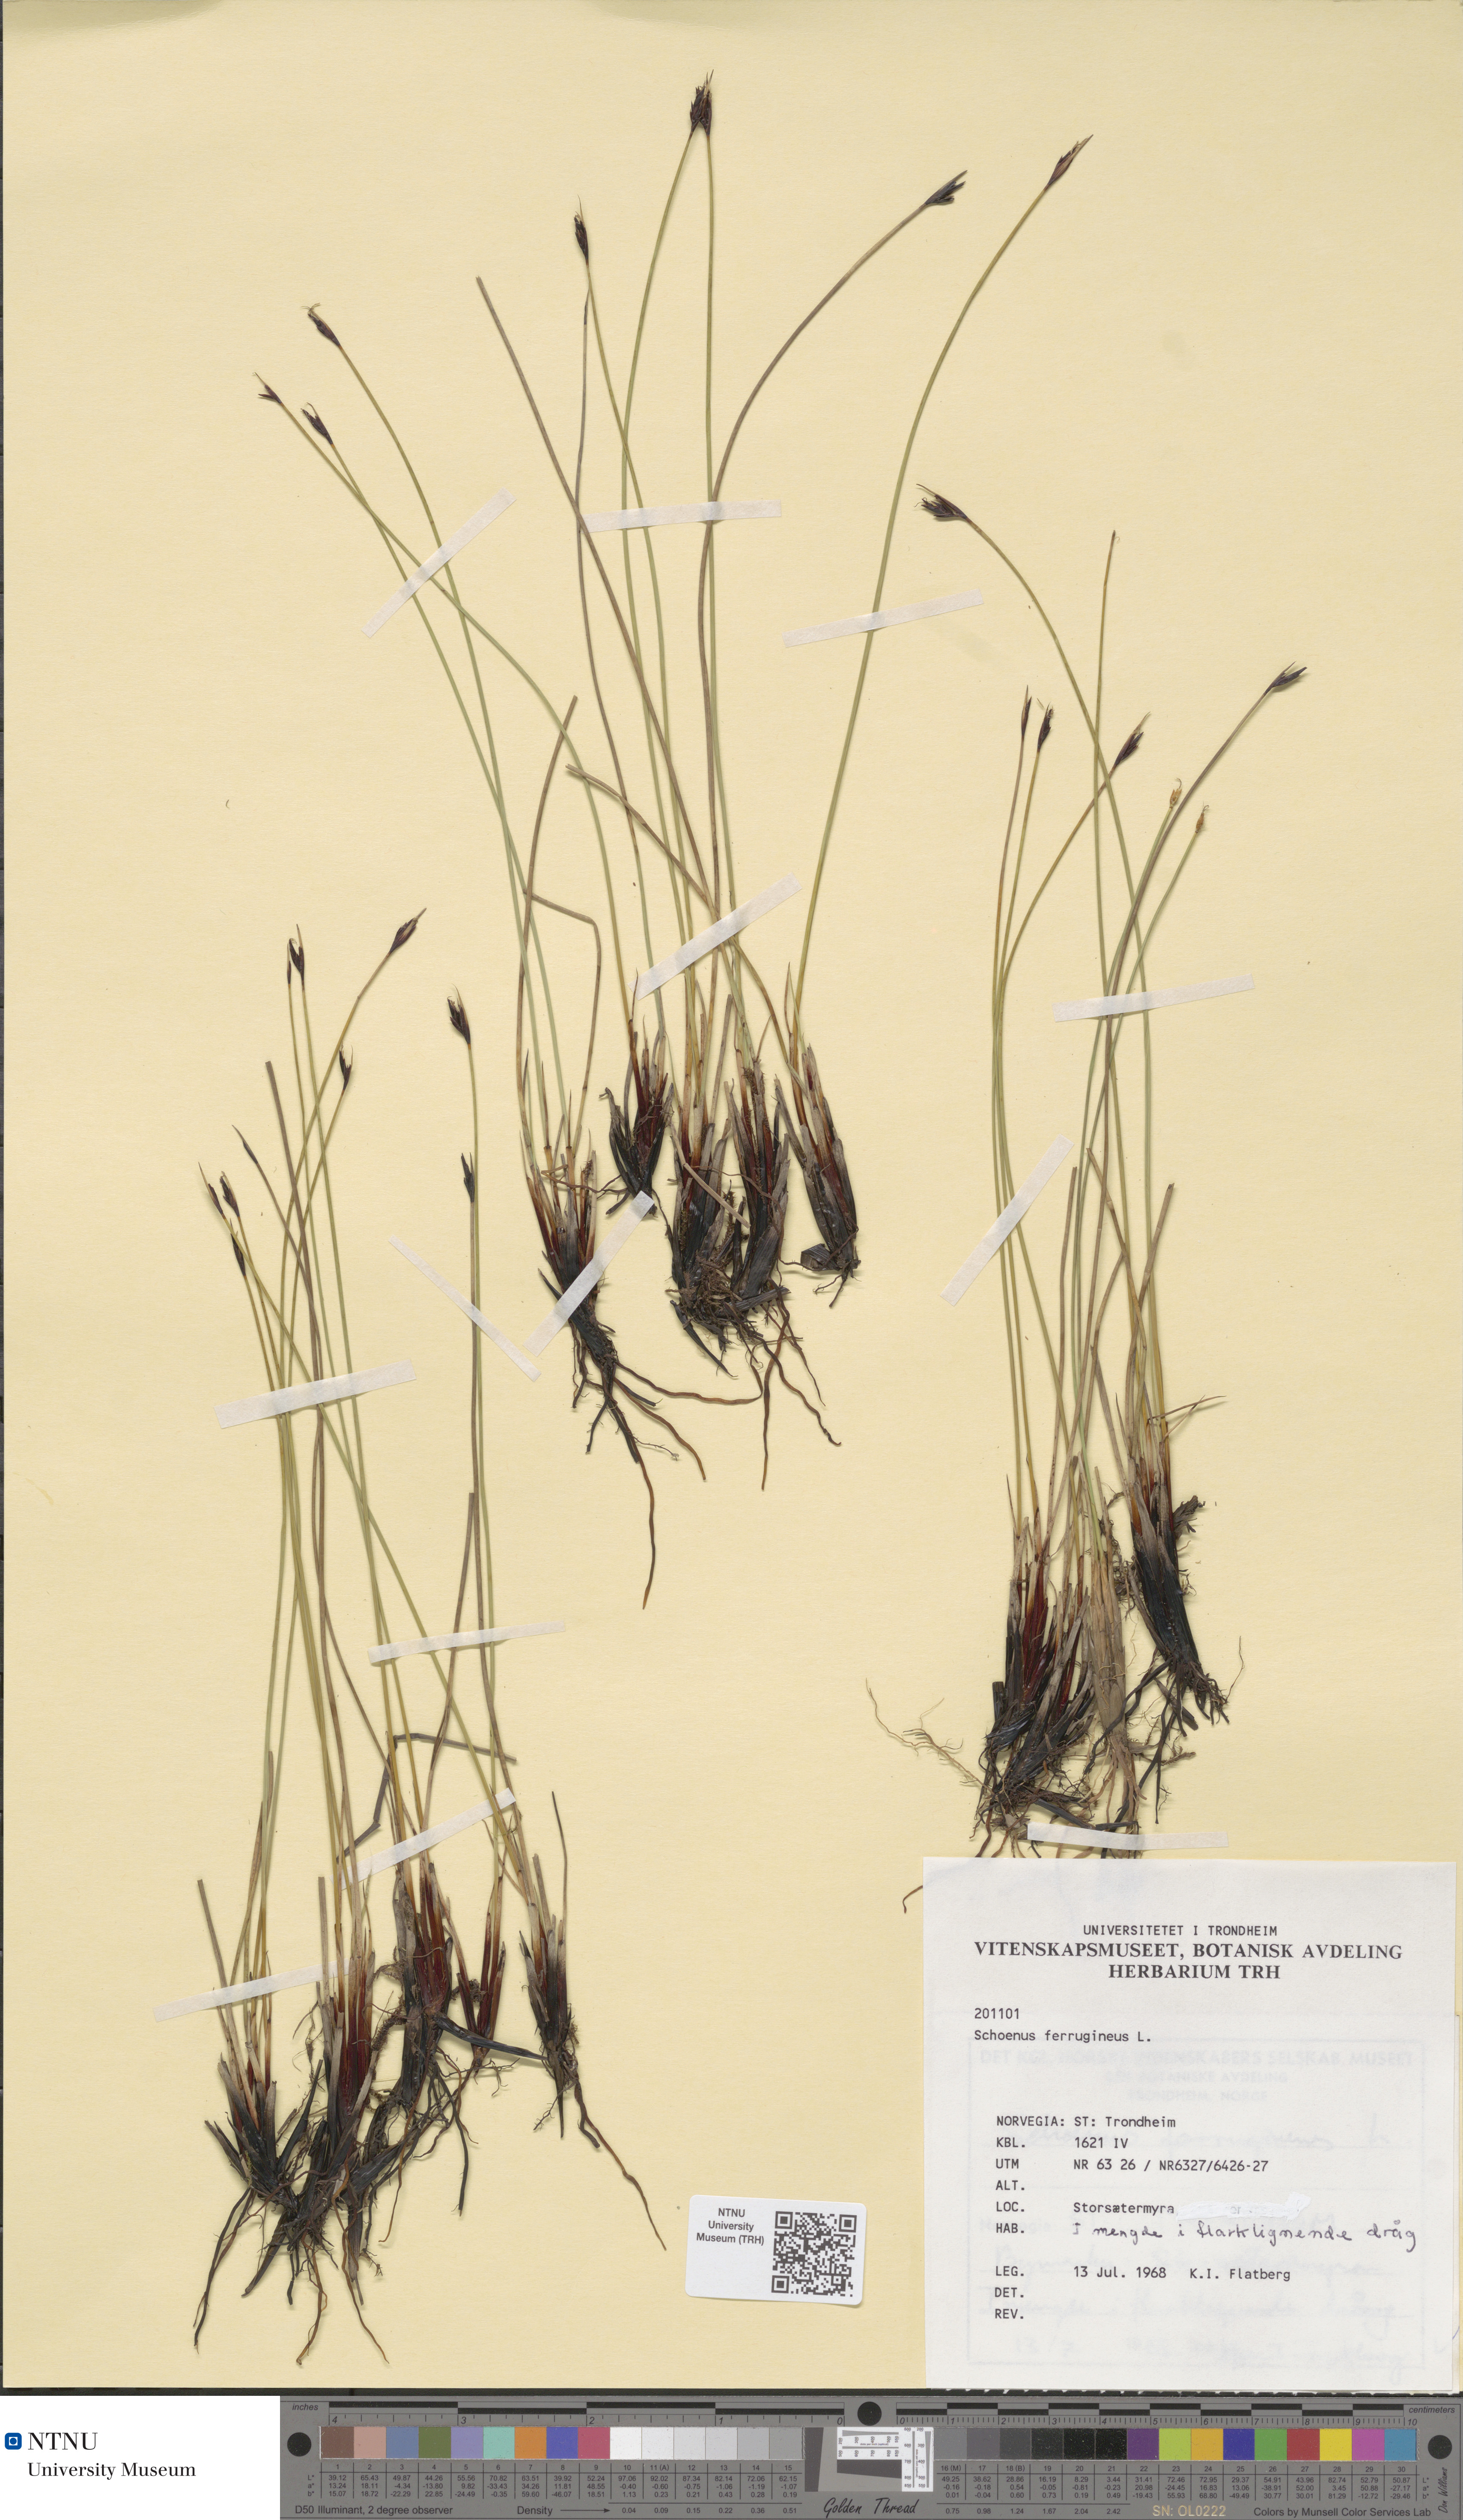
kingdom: Plantae
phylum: Tracheophyta
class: Liliopsida
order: Poales
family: Cyperaceae
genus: Schoenus
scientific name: Schoenus ferrugineus
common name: Brown bog-rush
